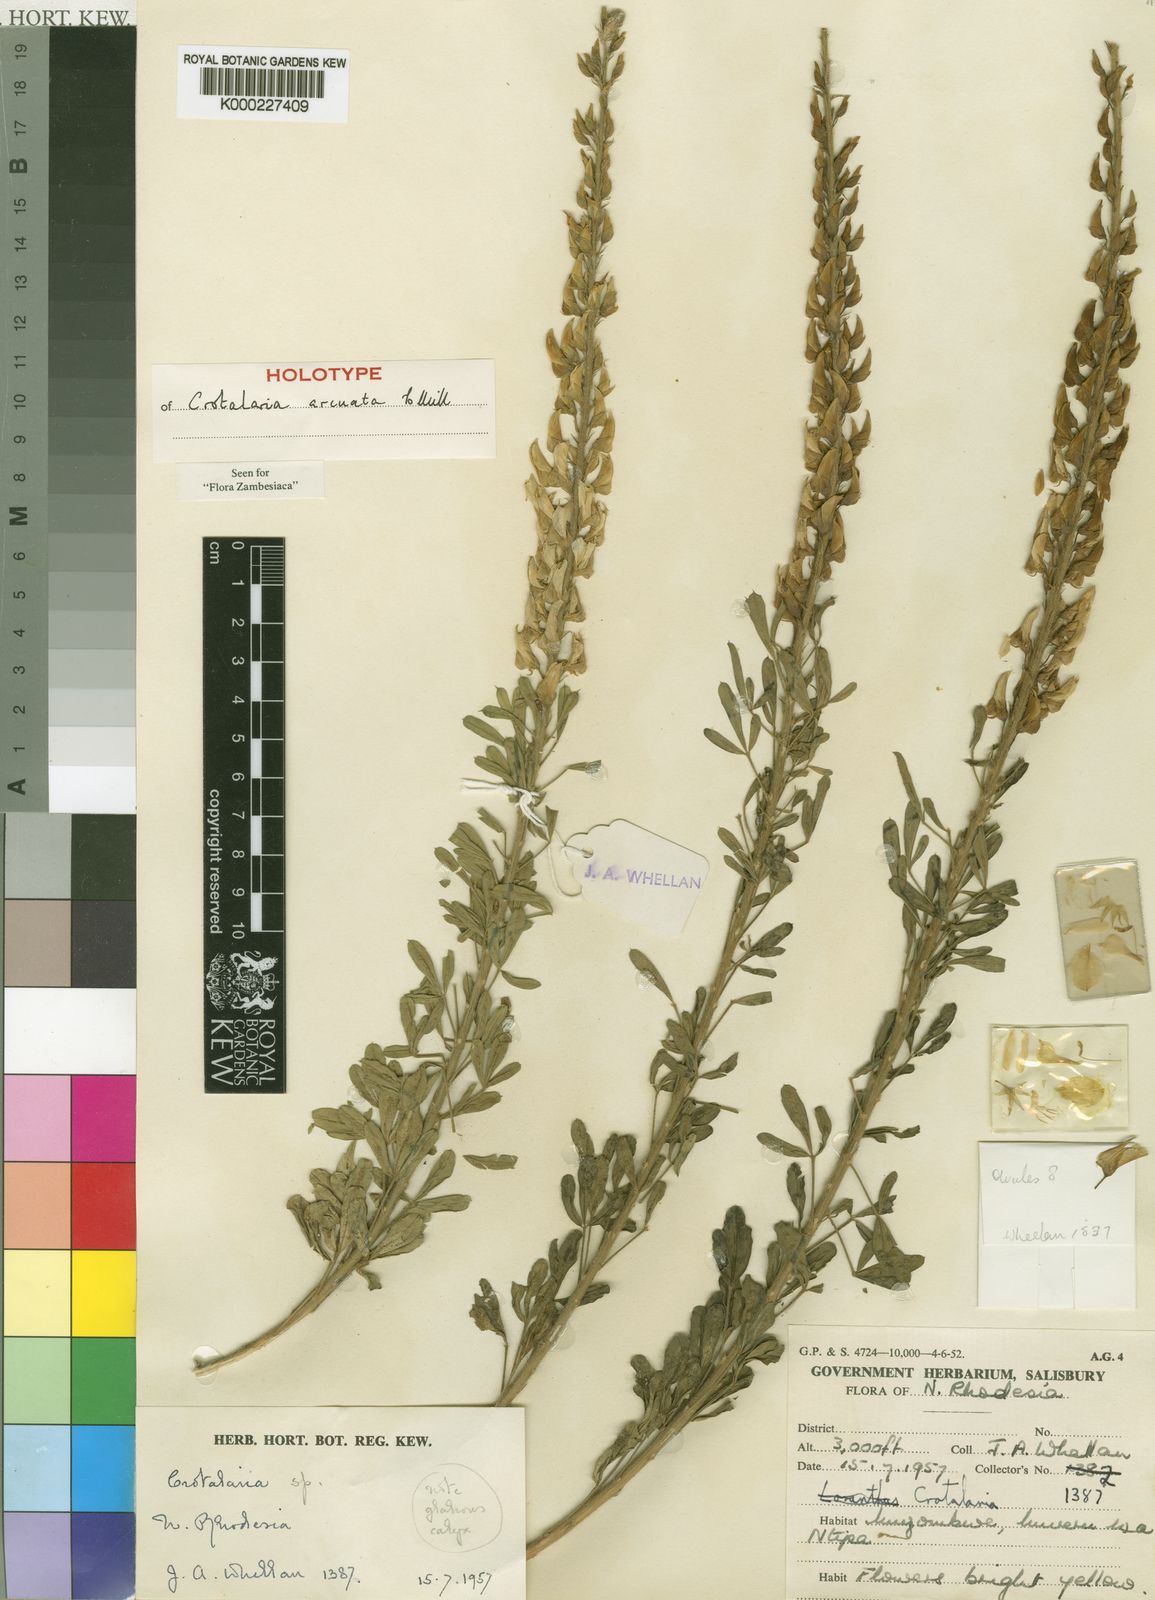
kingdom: Plantae
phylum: Tracheophyta
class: Magnoliopsida
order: Fabales
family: Fabaceae
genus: Crotalaria
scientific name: Crotalaria arcuata
